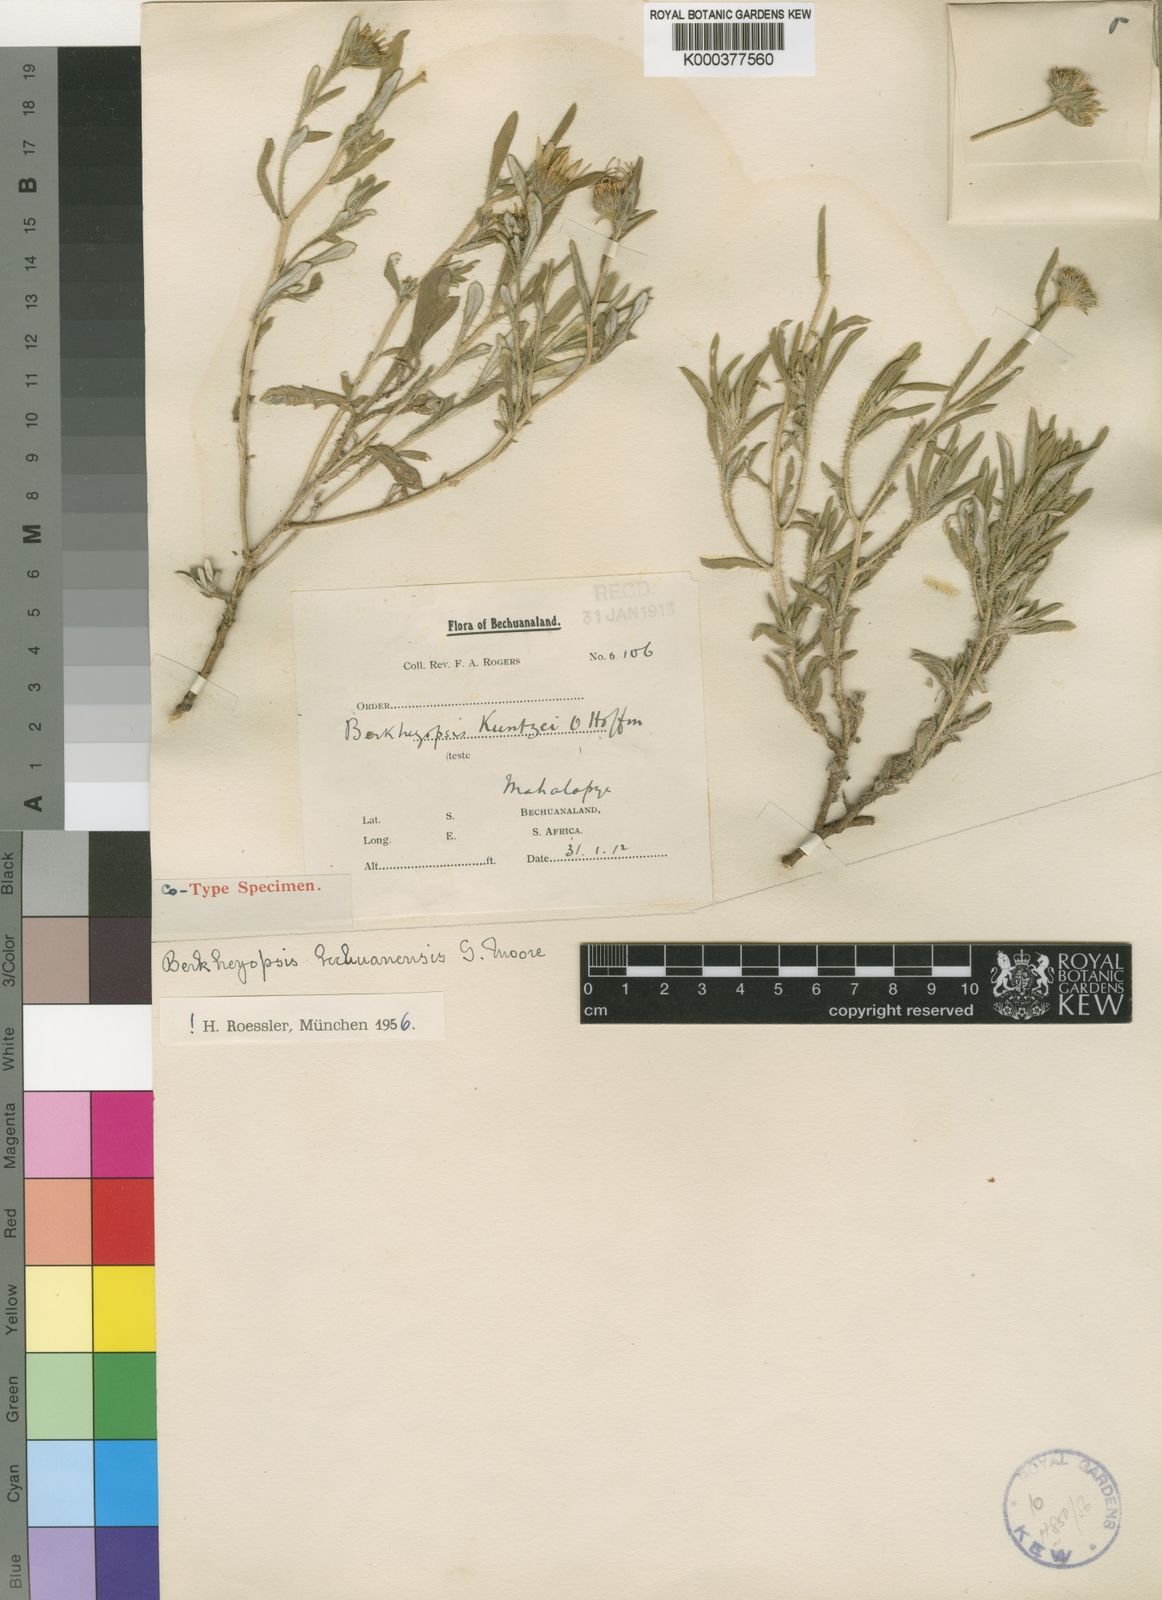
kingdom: Plantae
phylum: Tracheophyta
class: Magnoliopsida
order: Asterales
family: Asteraceae
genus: Roessleria
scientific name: Roessleria bechuanensis
